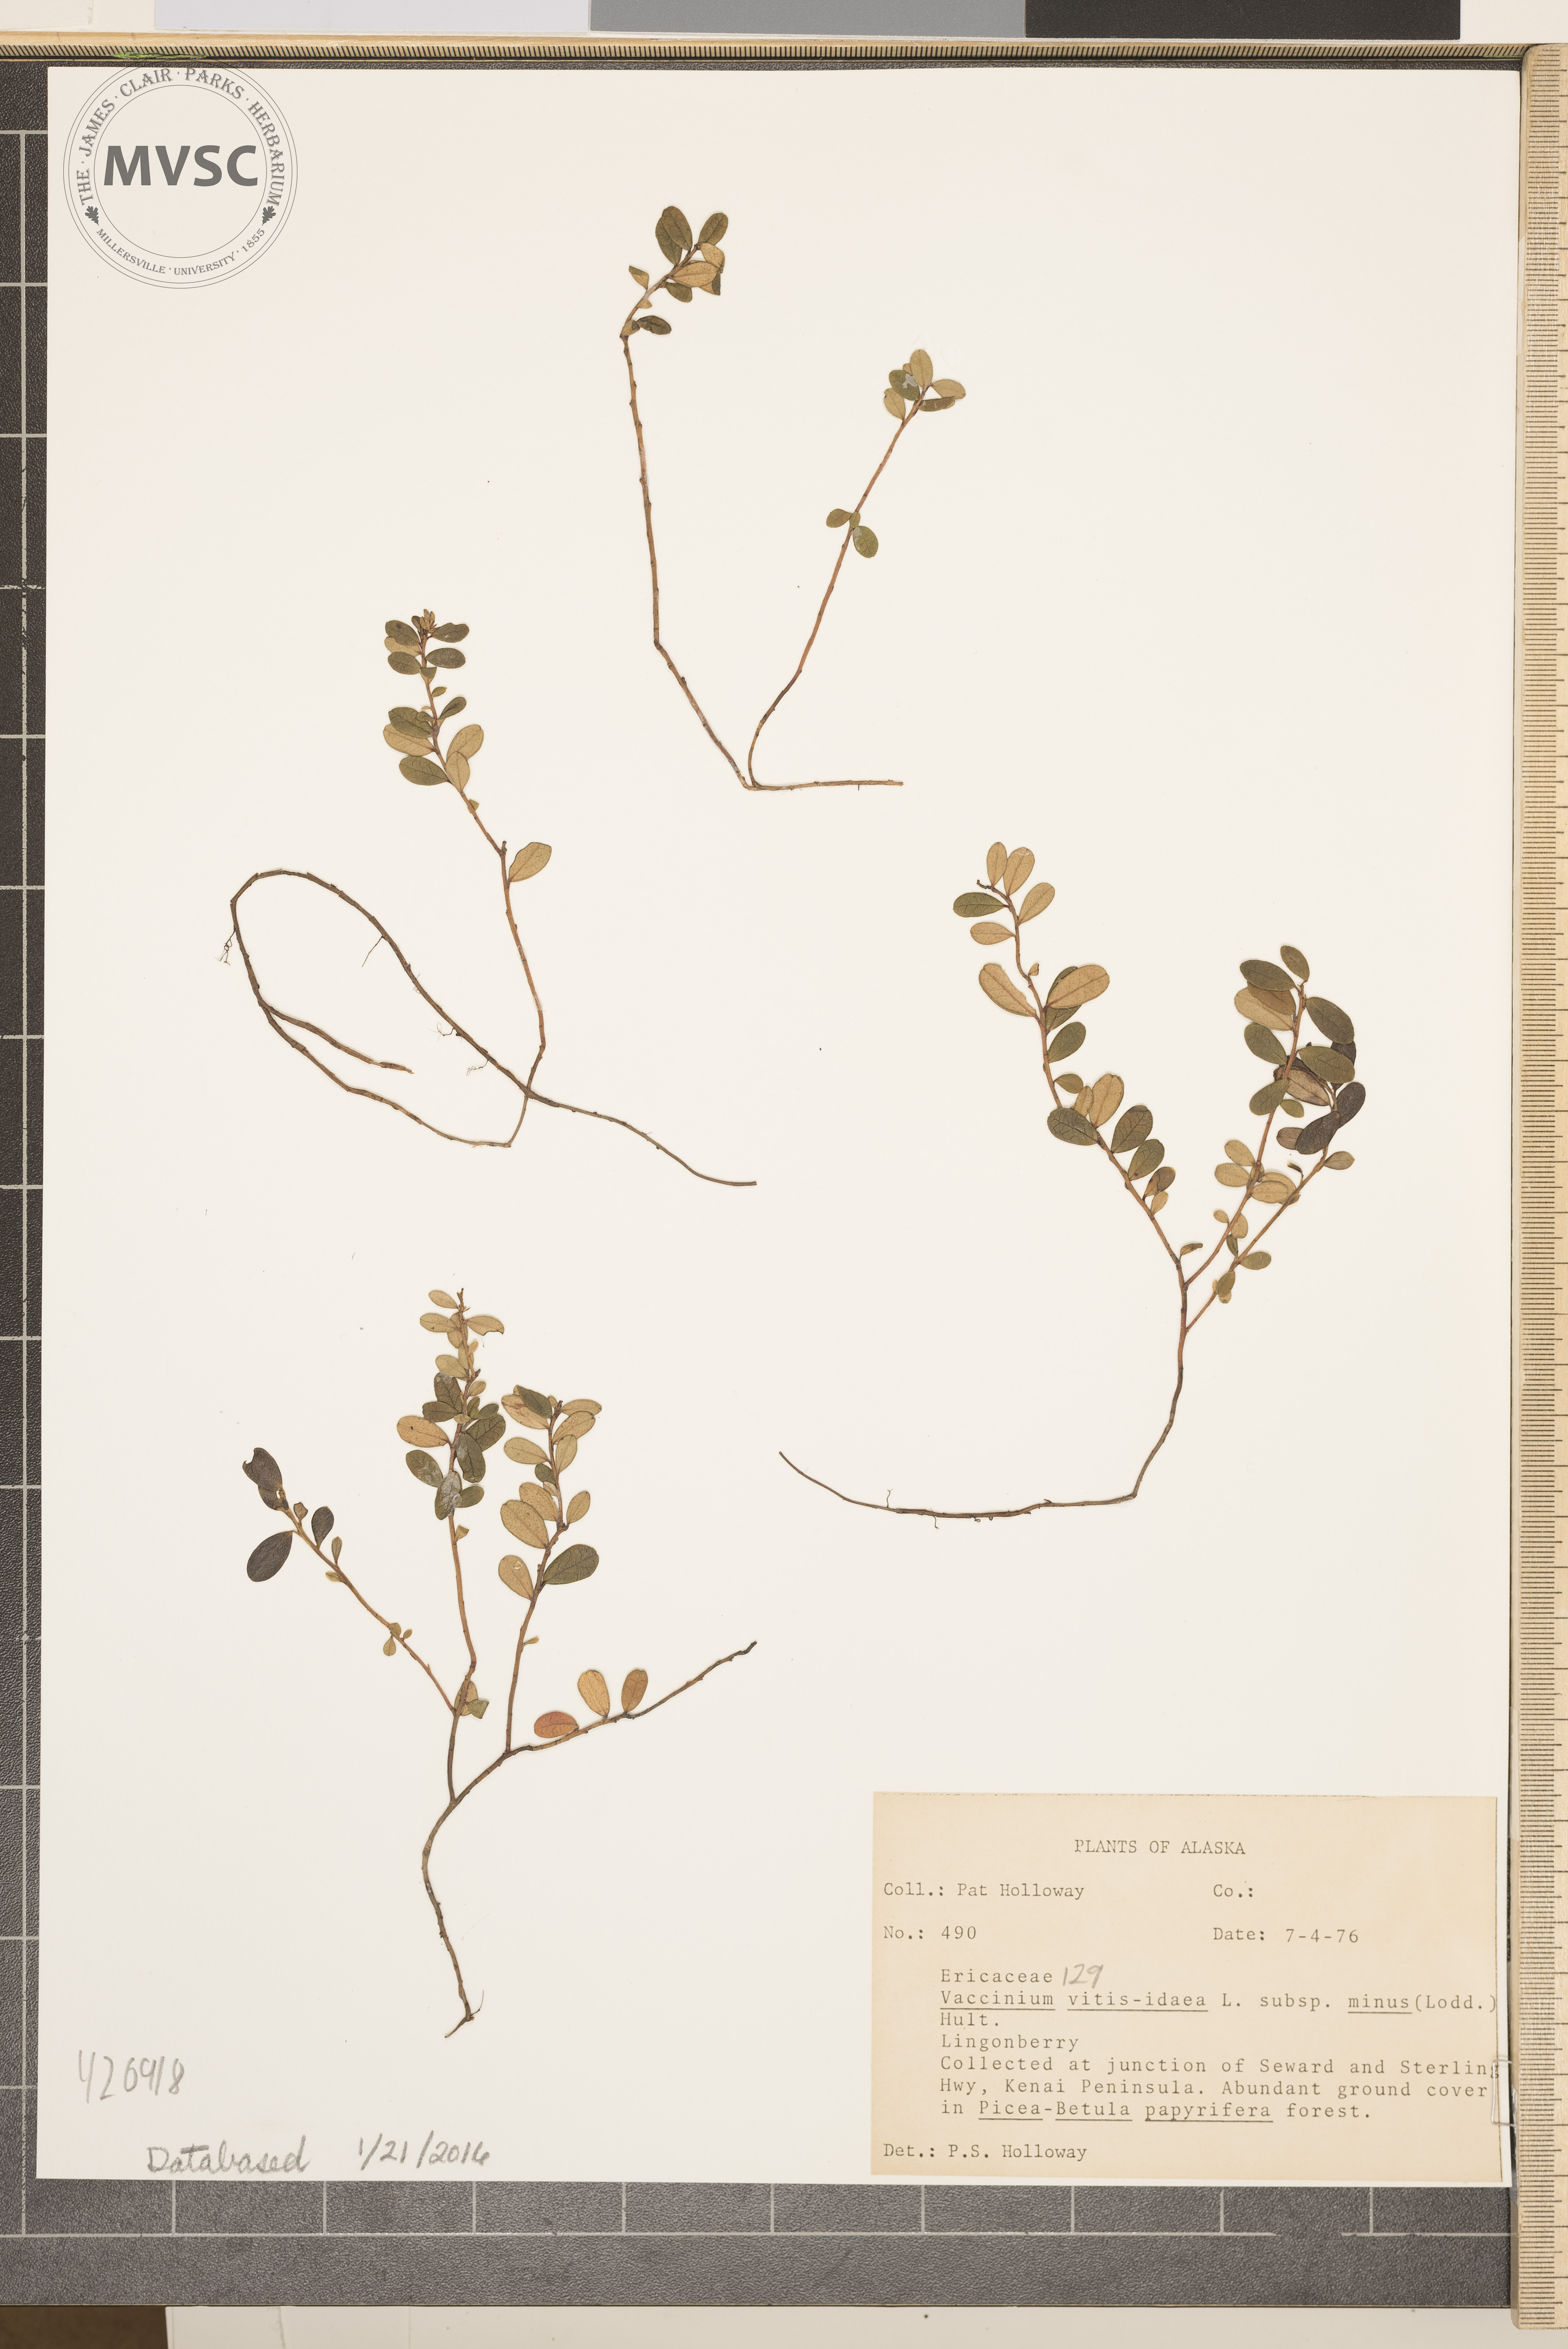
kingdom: Plantae
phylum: Tracheophyta
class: Magnoliopsida
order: Ericales
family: Ericaceae
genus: Vaccinium
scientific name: Vaccinium vitis-idaea
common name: Lingonberry
